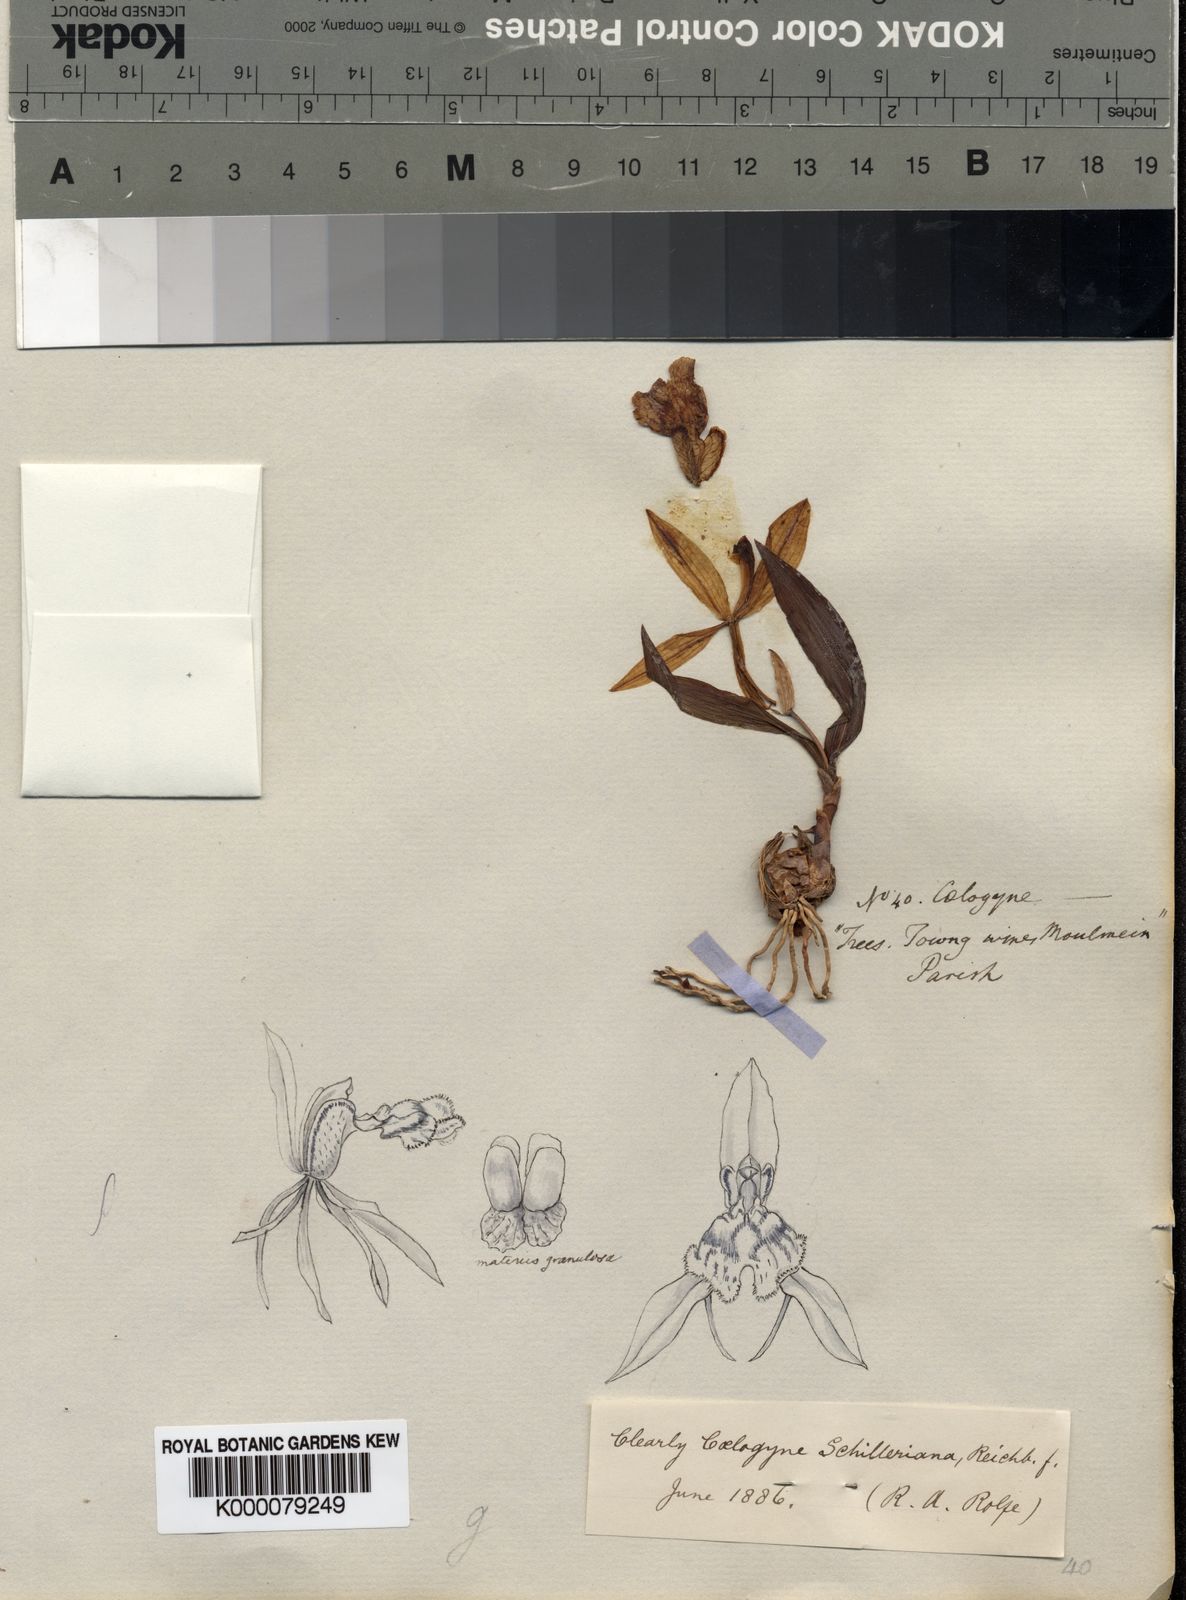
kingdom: Plantae
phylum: Tracheophyta
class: Liliopsida
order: Asparagales
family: Orchidaceae
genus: Coelogyne
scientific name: Coelogyne schilleriana
